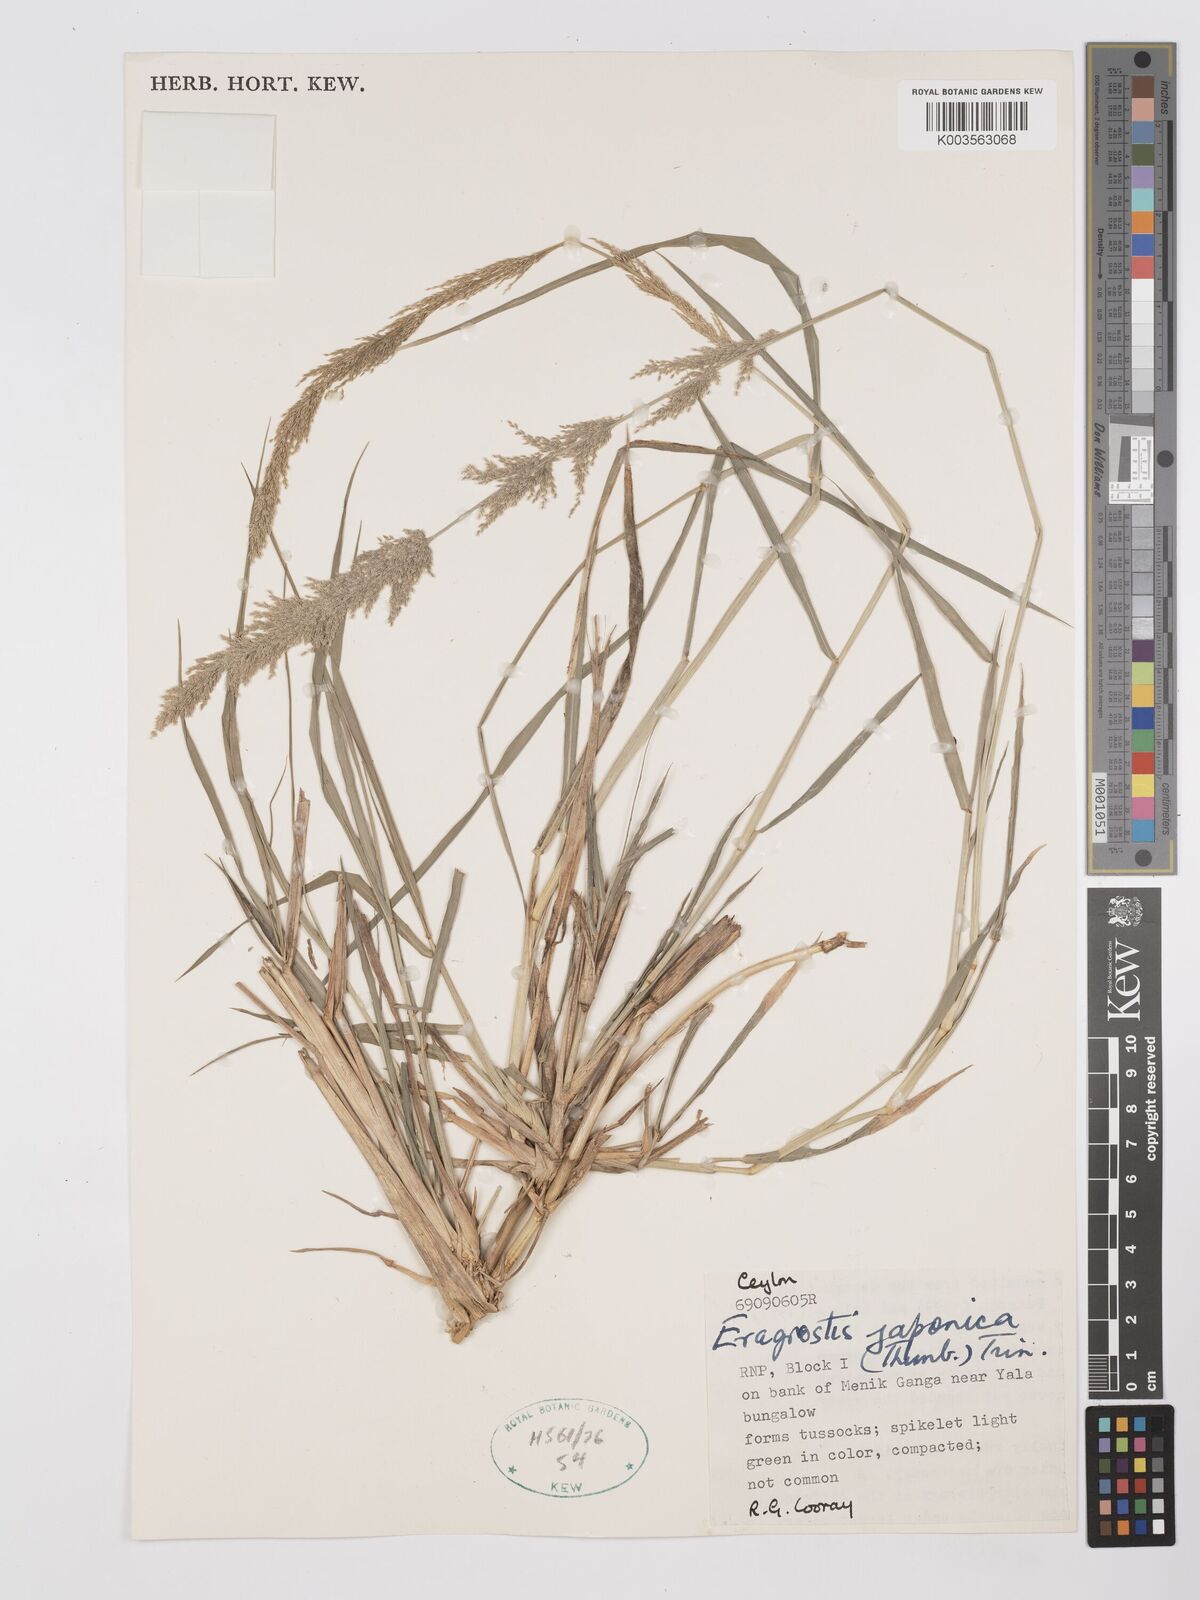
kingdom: Plantae
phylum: Tracheophyta
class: Liliopsida
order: Poales
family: Poaceae
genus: Eragrostis
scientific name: Eragrostis japonica
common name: Pond lovegrass
